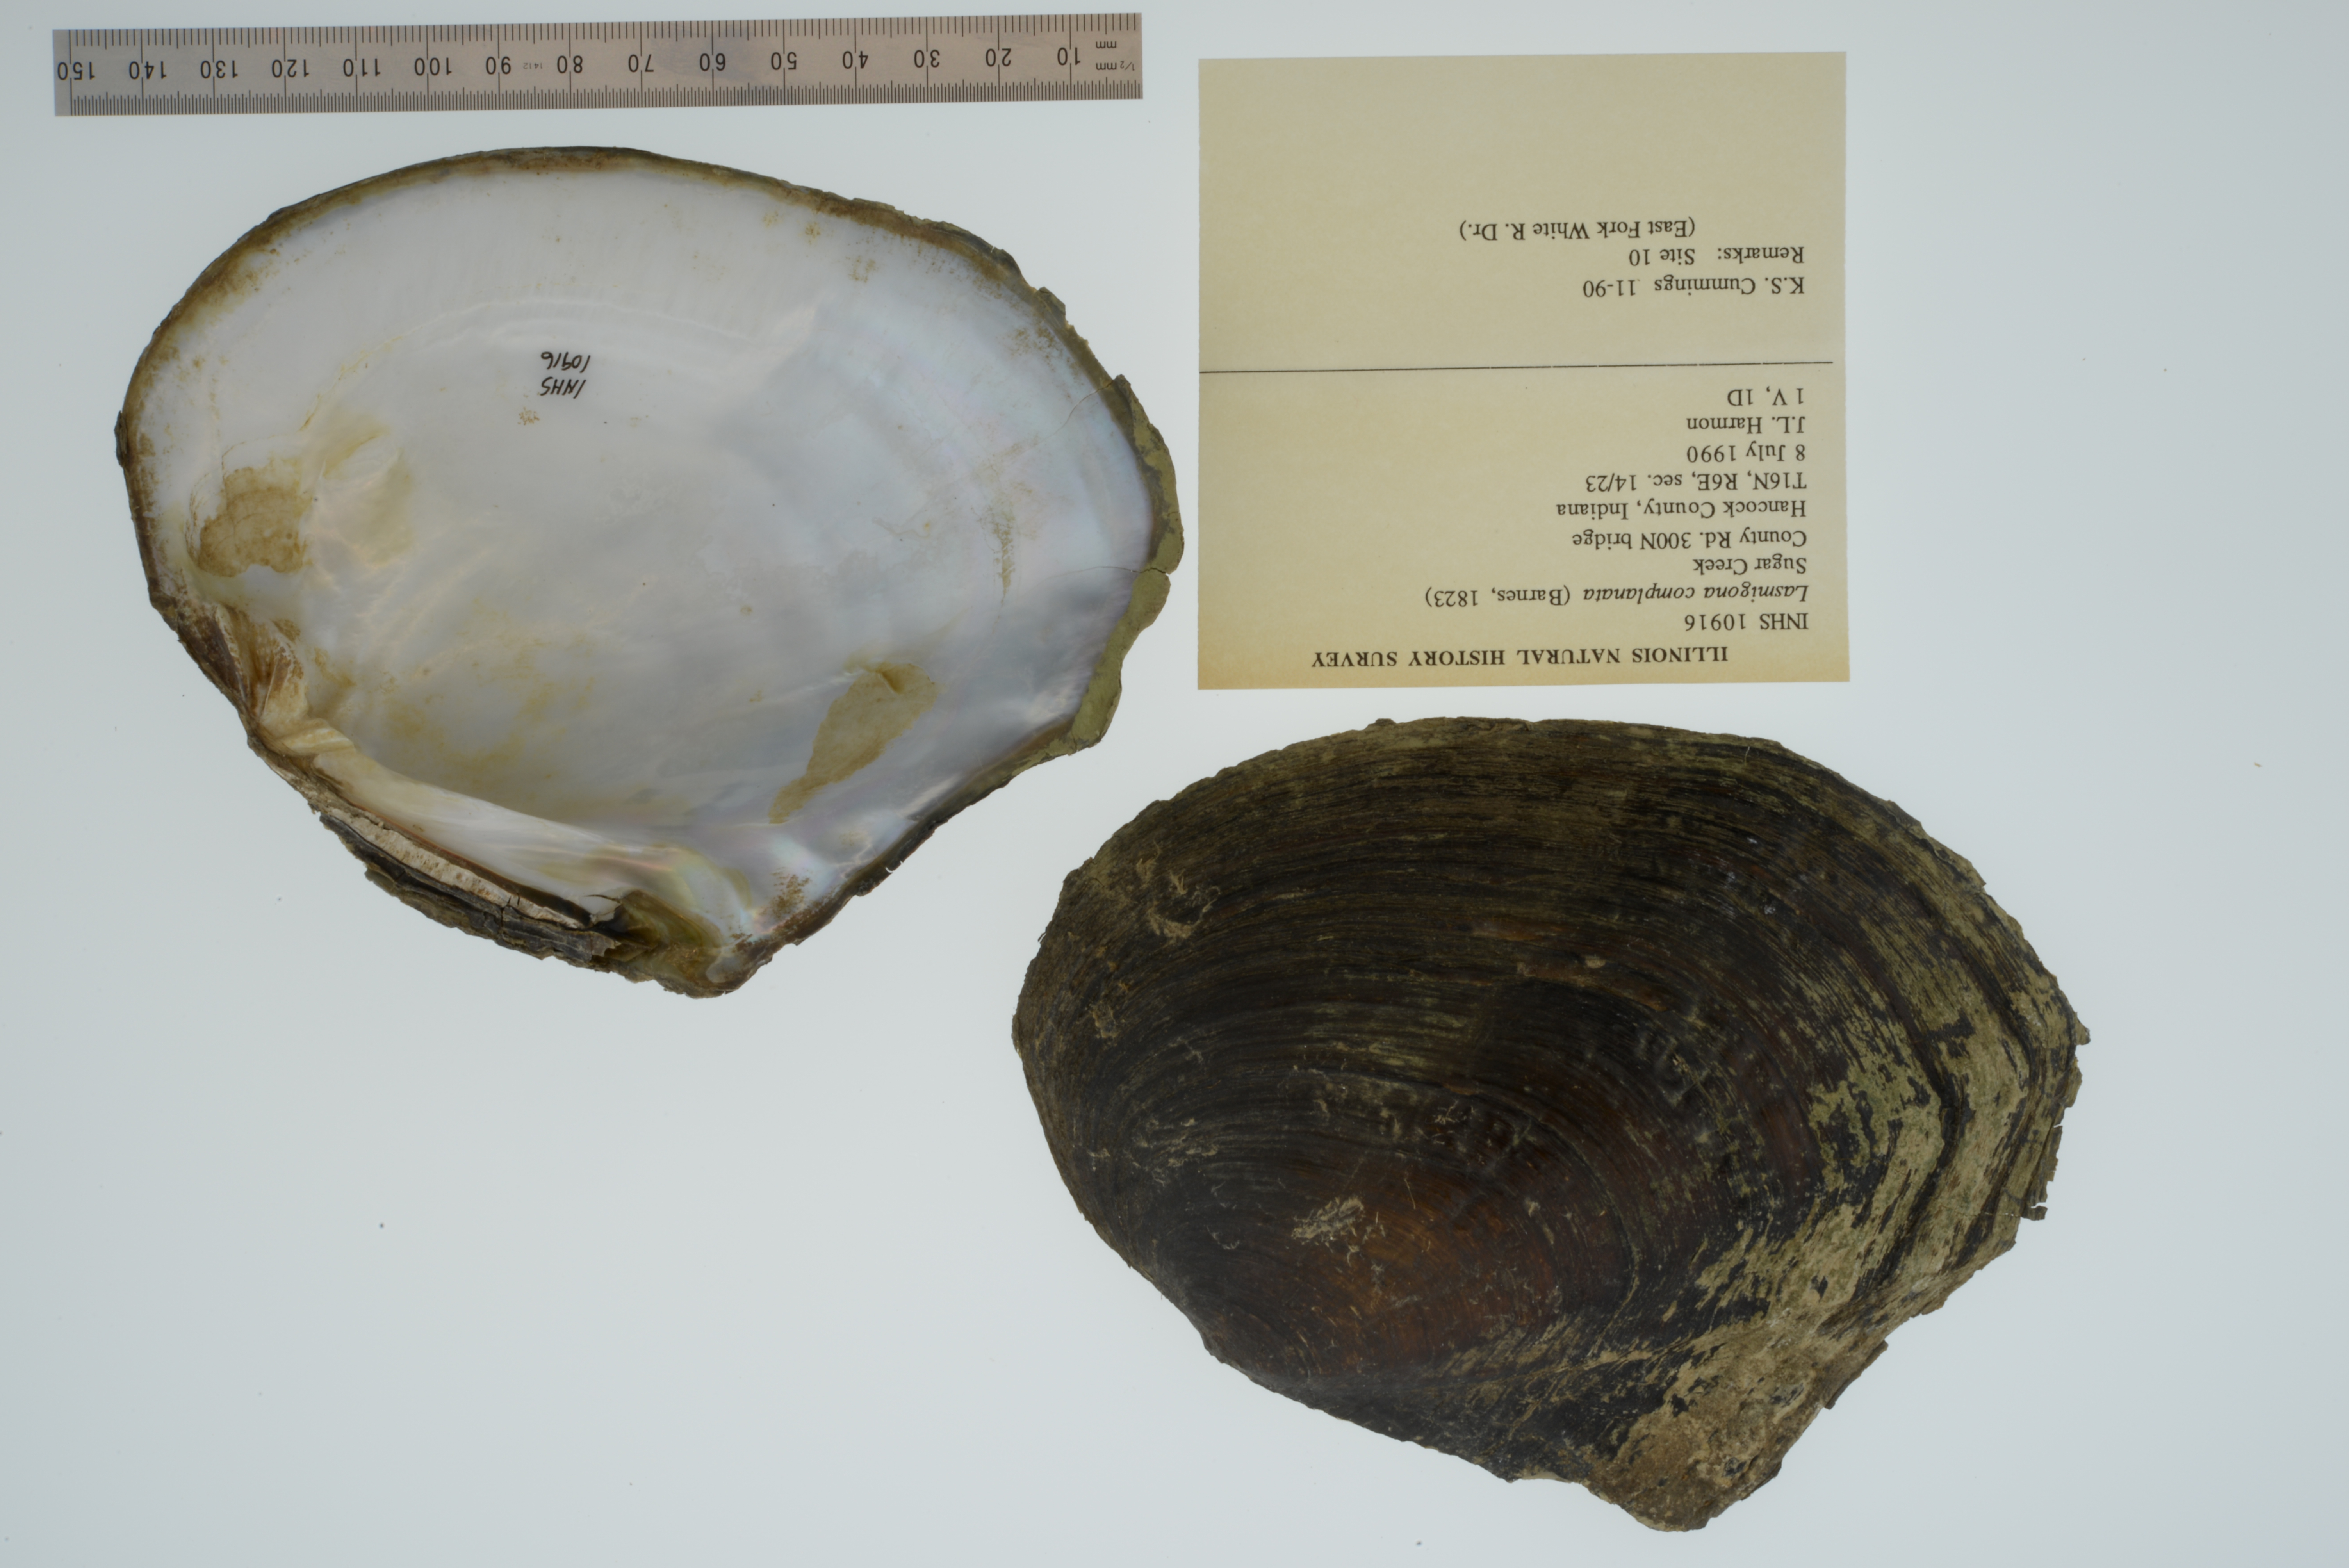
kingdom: Animalia
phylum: Mollusca
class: Bivalvia
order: Unionida
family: Unionidae
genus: Lasmigona
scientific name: Lasmigona complanata
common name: White heelsplitter
